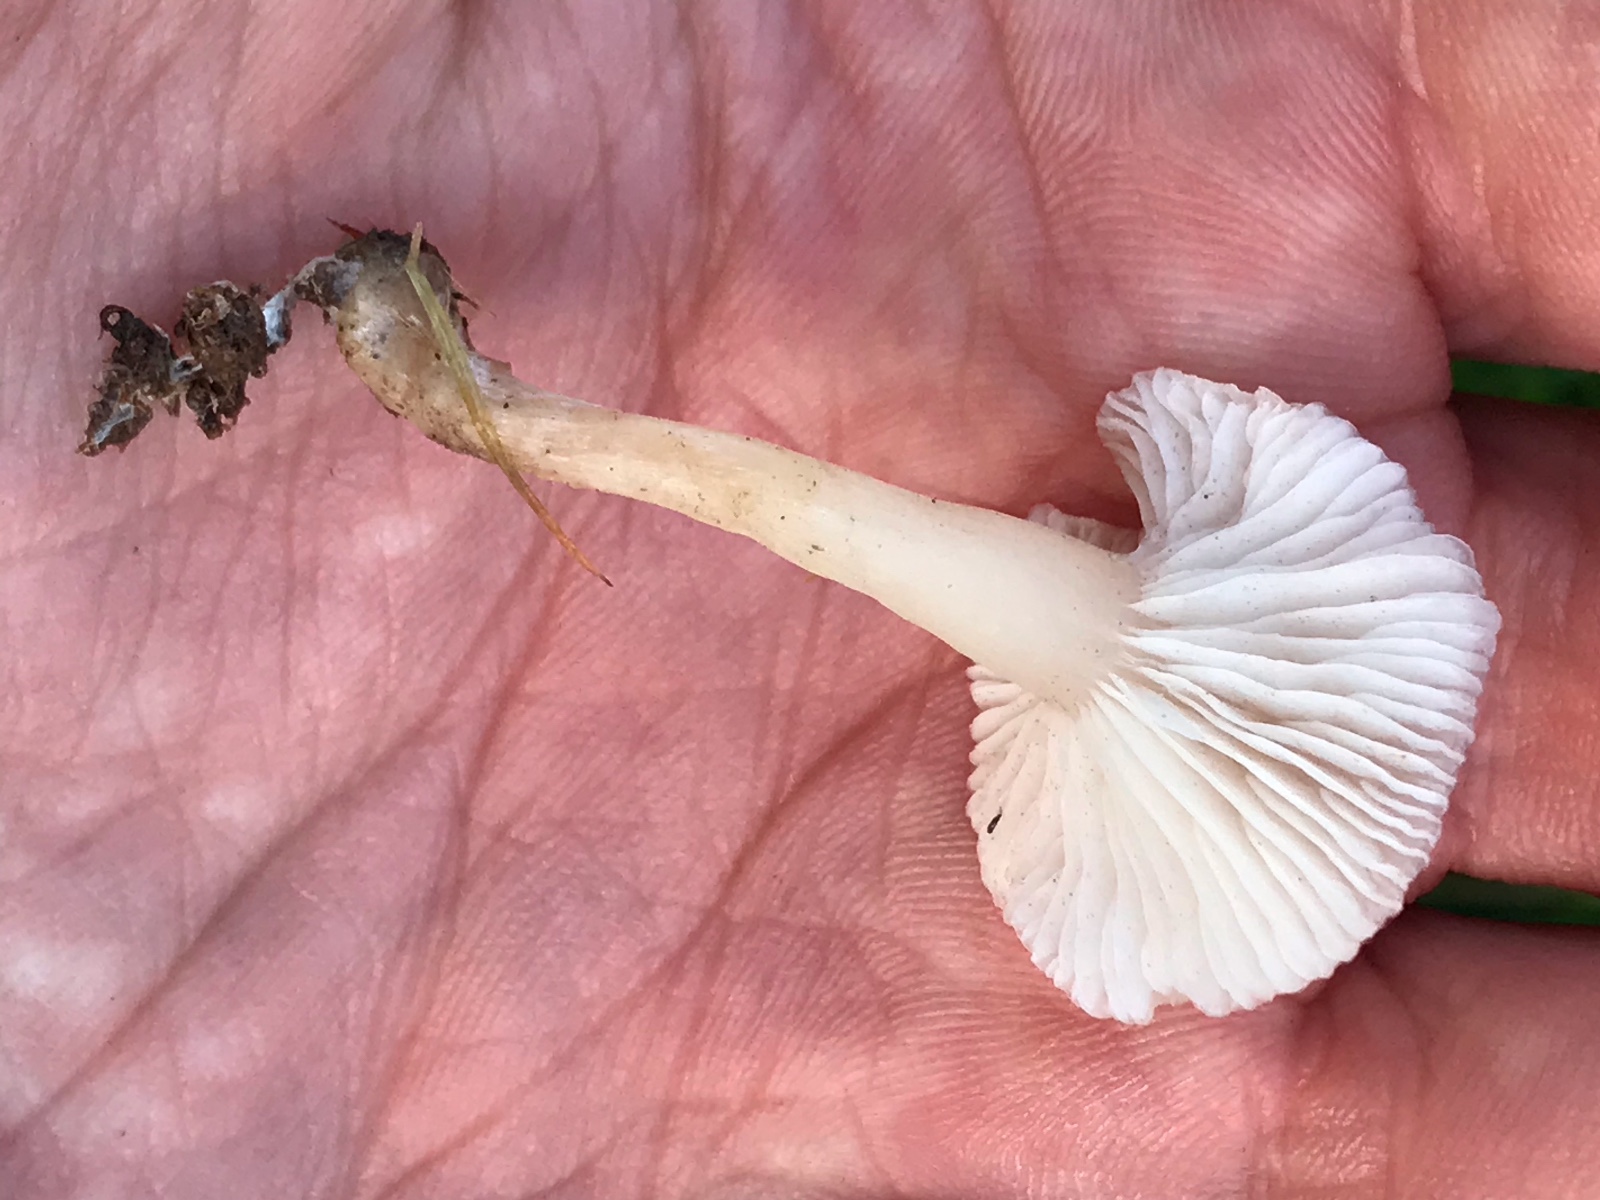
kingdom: Fungi
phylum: Basidiomycota
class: Agaricomycetes
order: Agaricales
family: Hygrophoraceae
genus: Cuphophyllus
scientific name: Cuphophyllus virgineus
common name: snehvid vokshat
